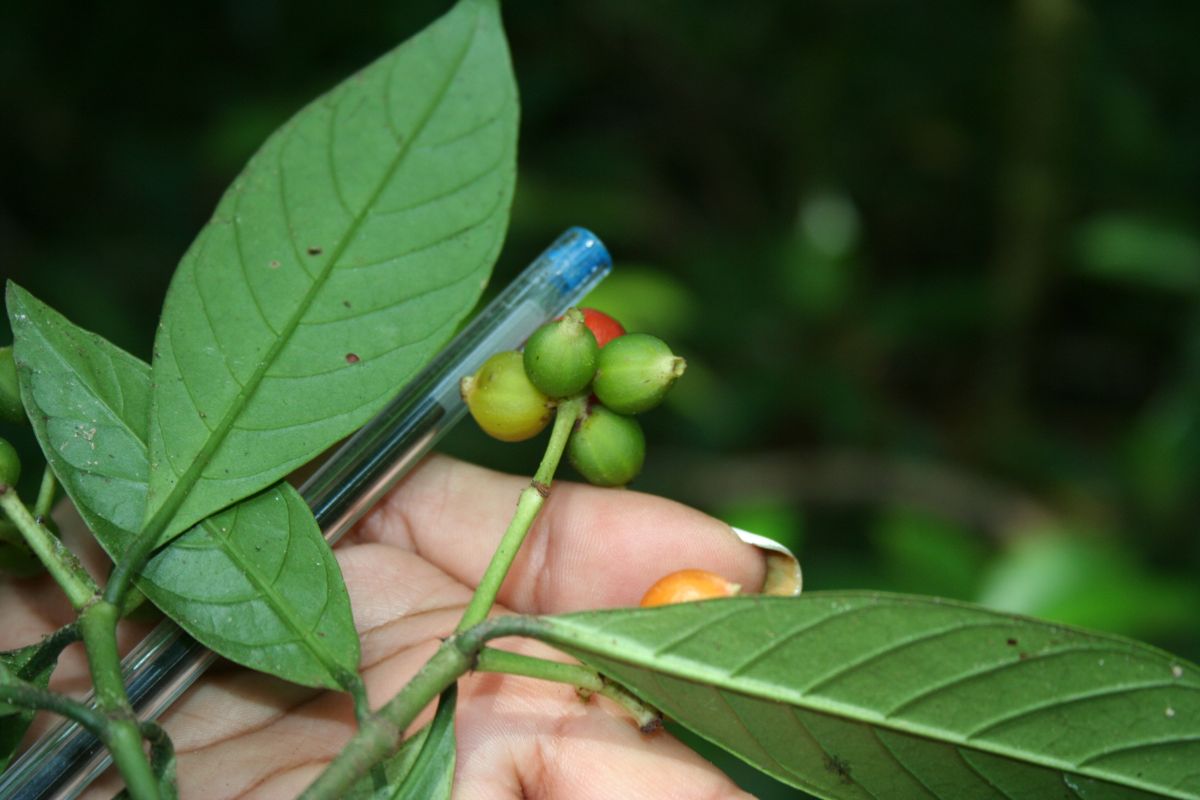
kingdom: Plantae
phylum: Tracheophyta
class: Magnoliopsida
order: Gentianales
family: Rubiaceae
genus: Psychotria
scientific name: Psychotria panamensis
